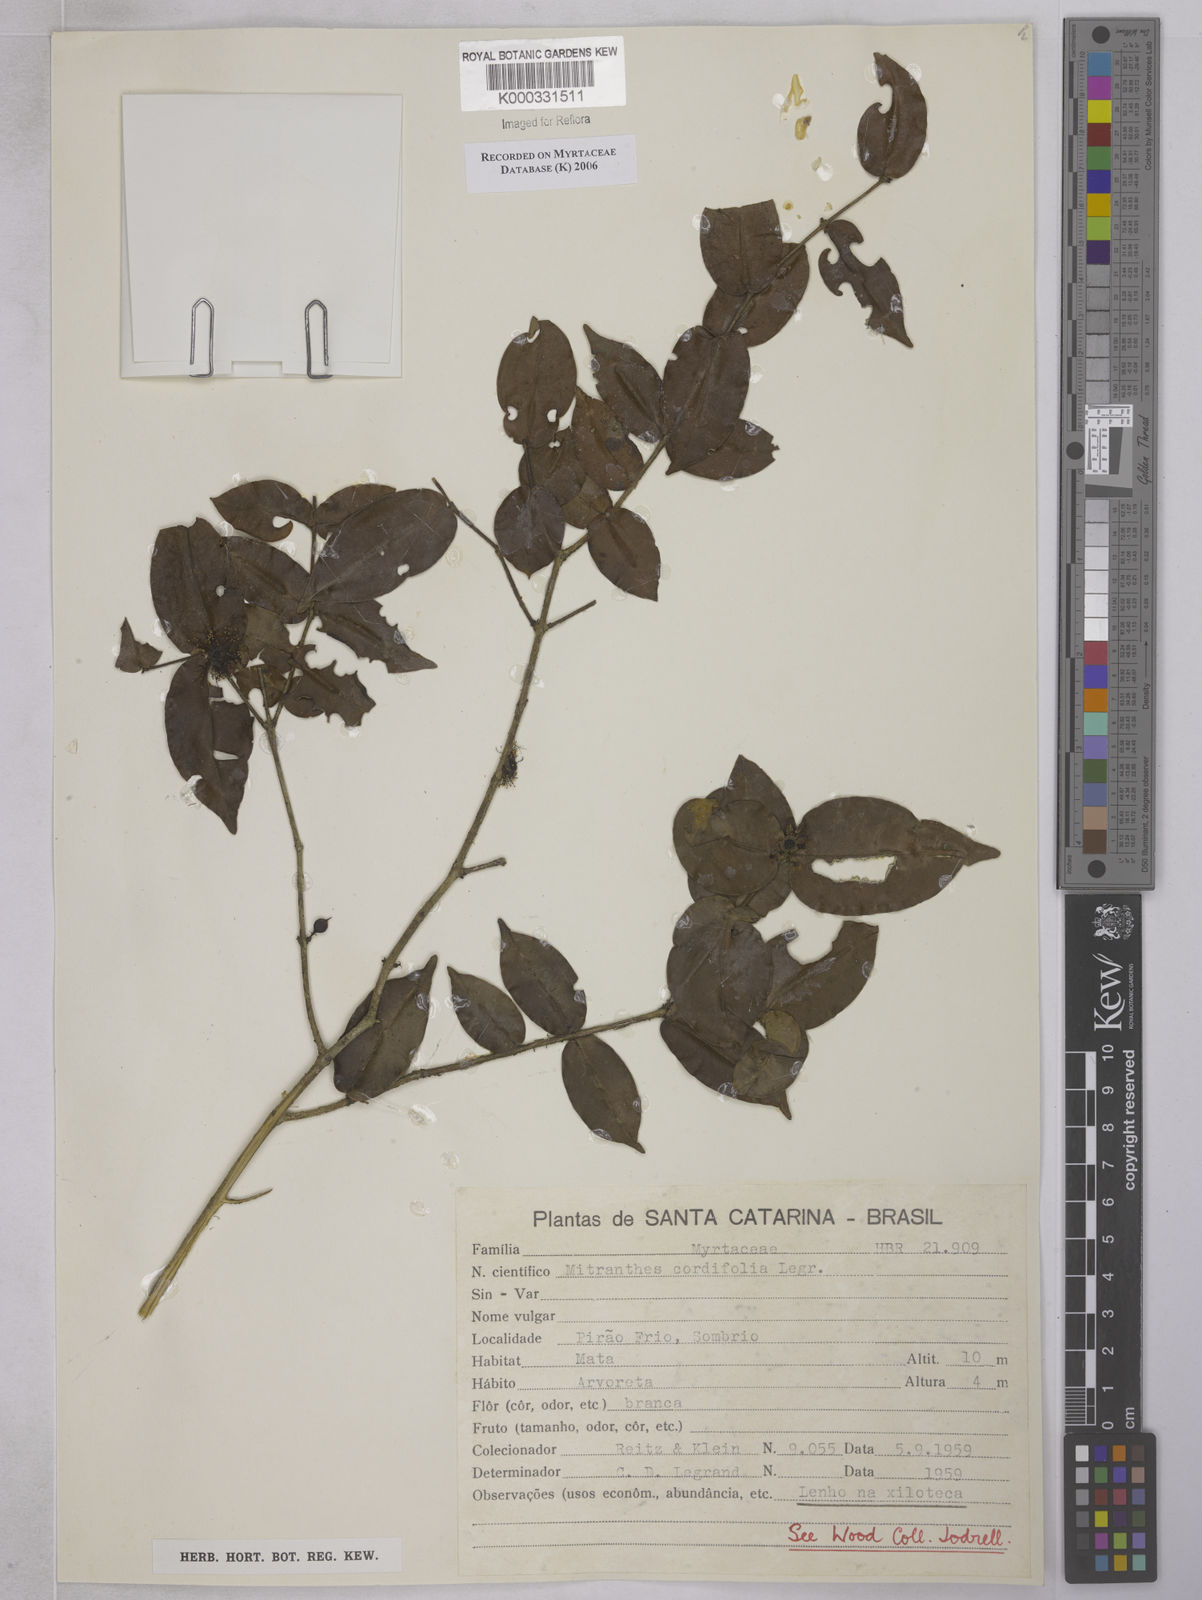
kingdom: Plantae
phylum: Tracheophyta
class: Magnoliopsida
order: Myrtales
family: Myrtaceae
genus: Neomitranthes
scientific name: Neomitranthes cordifolia
